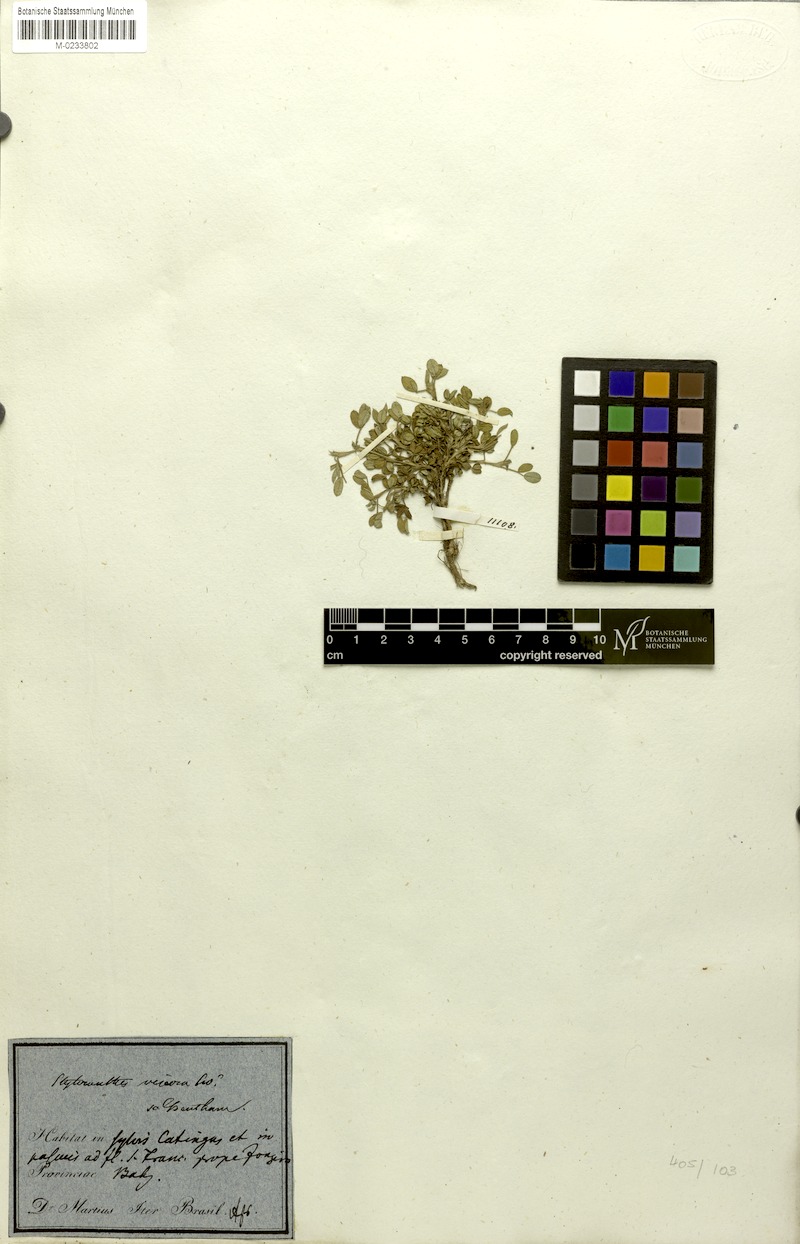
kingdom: Plantae
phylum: Tracheophyta
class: Magnoliopsida
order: Fabales
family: Fabaceae
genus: Stylosanthes
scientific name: Stylosanthes viscosa
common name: Viscid pencil-flower
